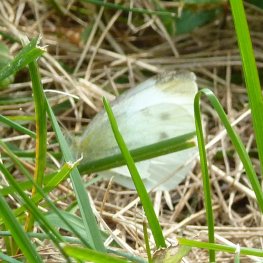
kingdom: Animalia
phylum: Arthropoda
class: Insecta
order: Lepidoptera
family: Pieridae
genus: Pieris
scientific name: Pieris rapae
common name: Cabbage White
